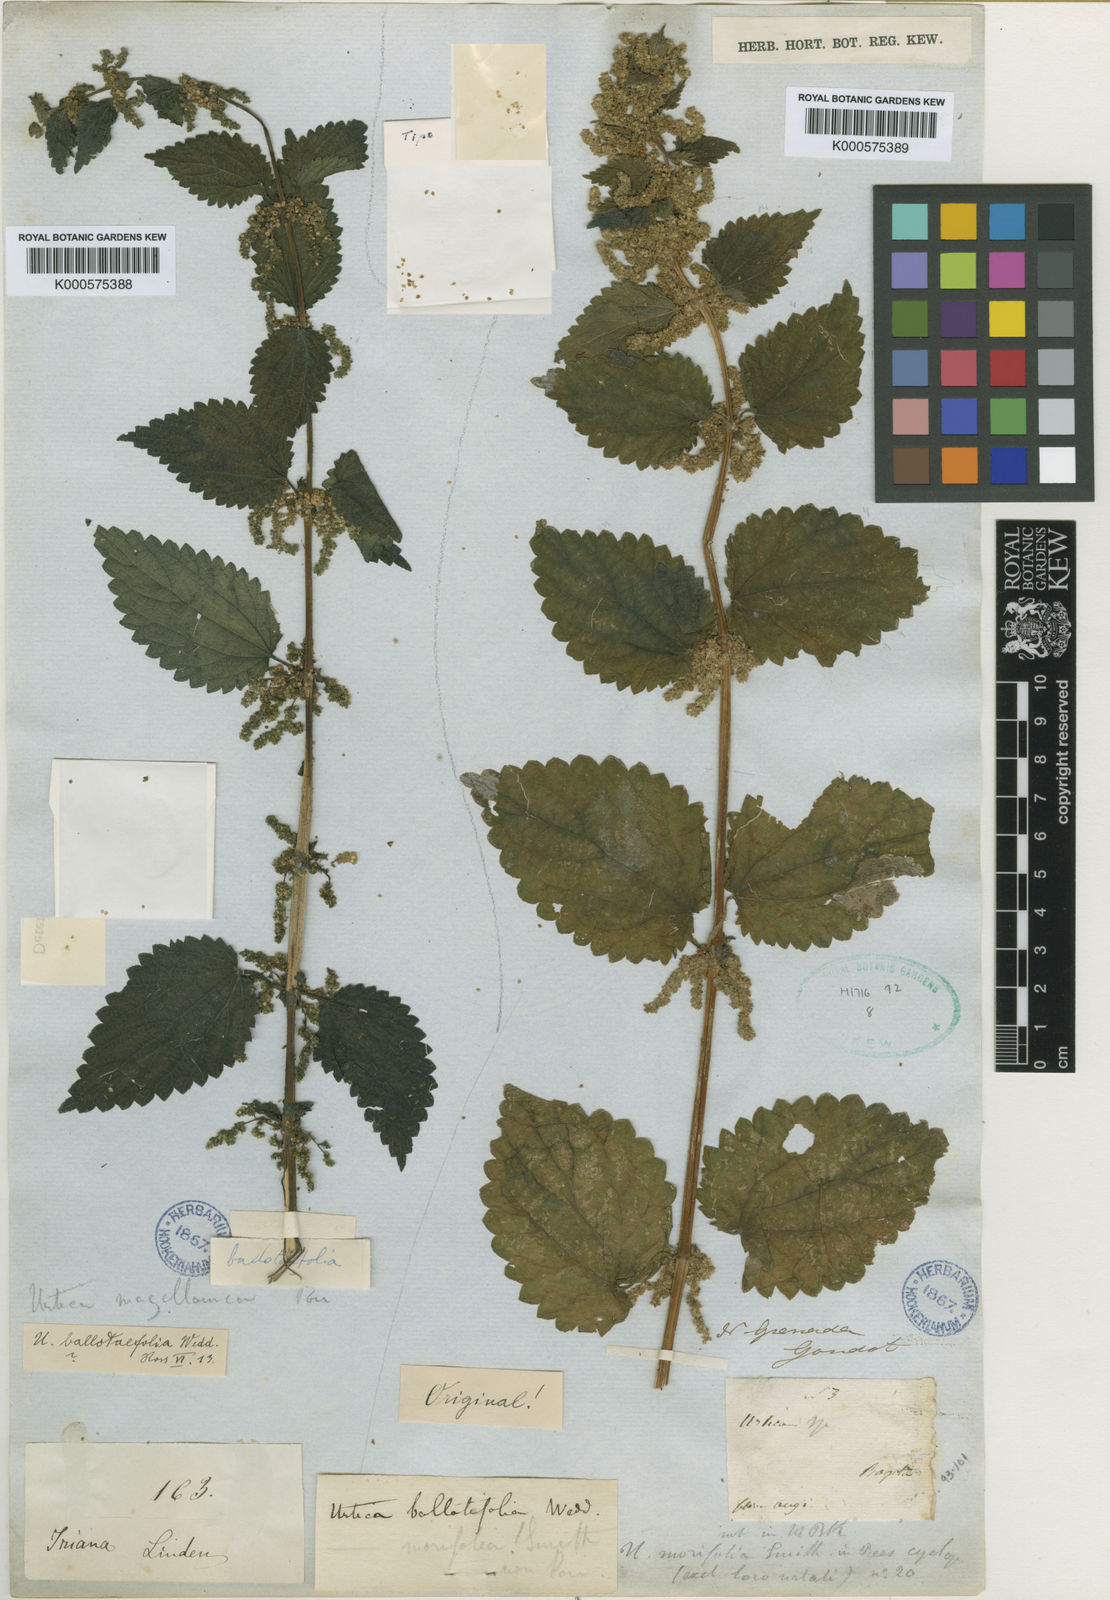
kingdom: Plantae
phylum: Tracheophyta
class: Magnoliopsida
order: Rosales
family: Urticaceae
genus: Urtica
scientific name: Urtica leptophylla
